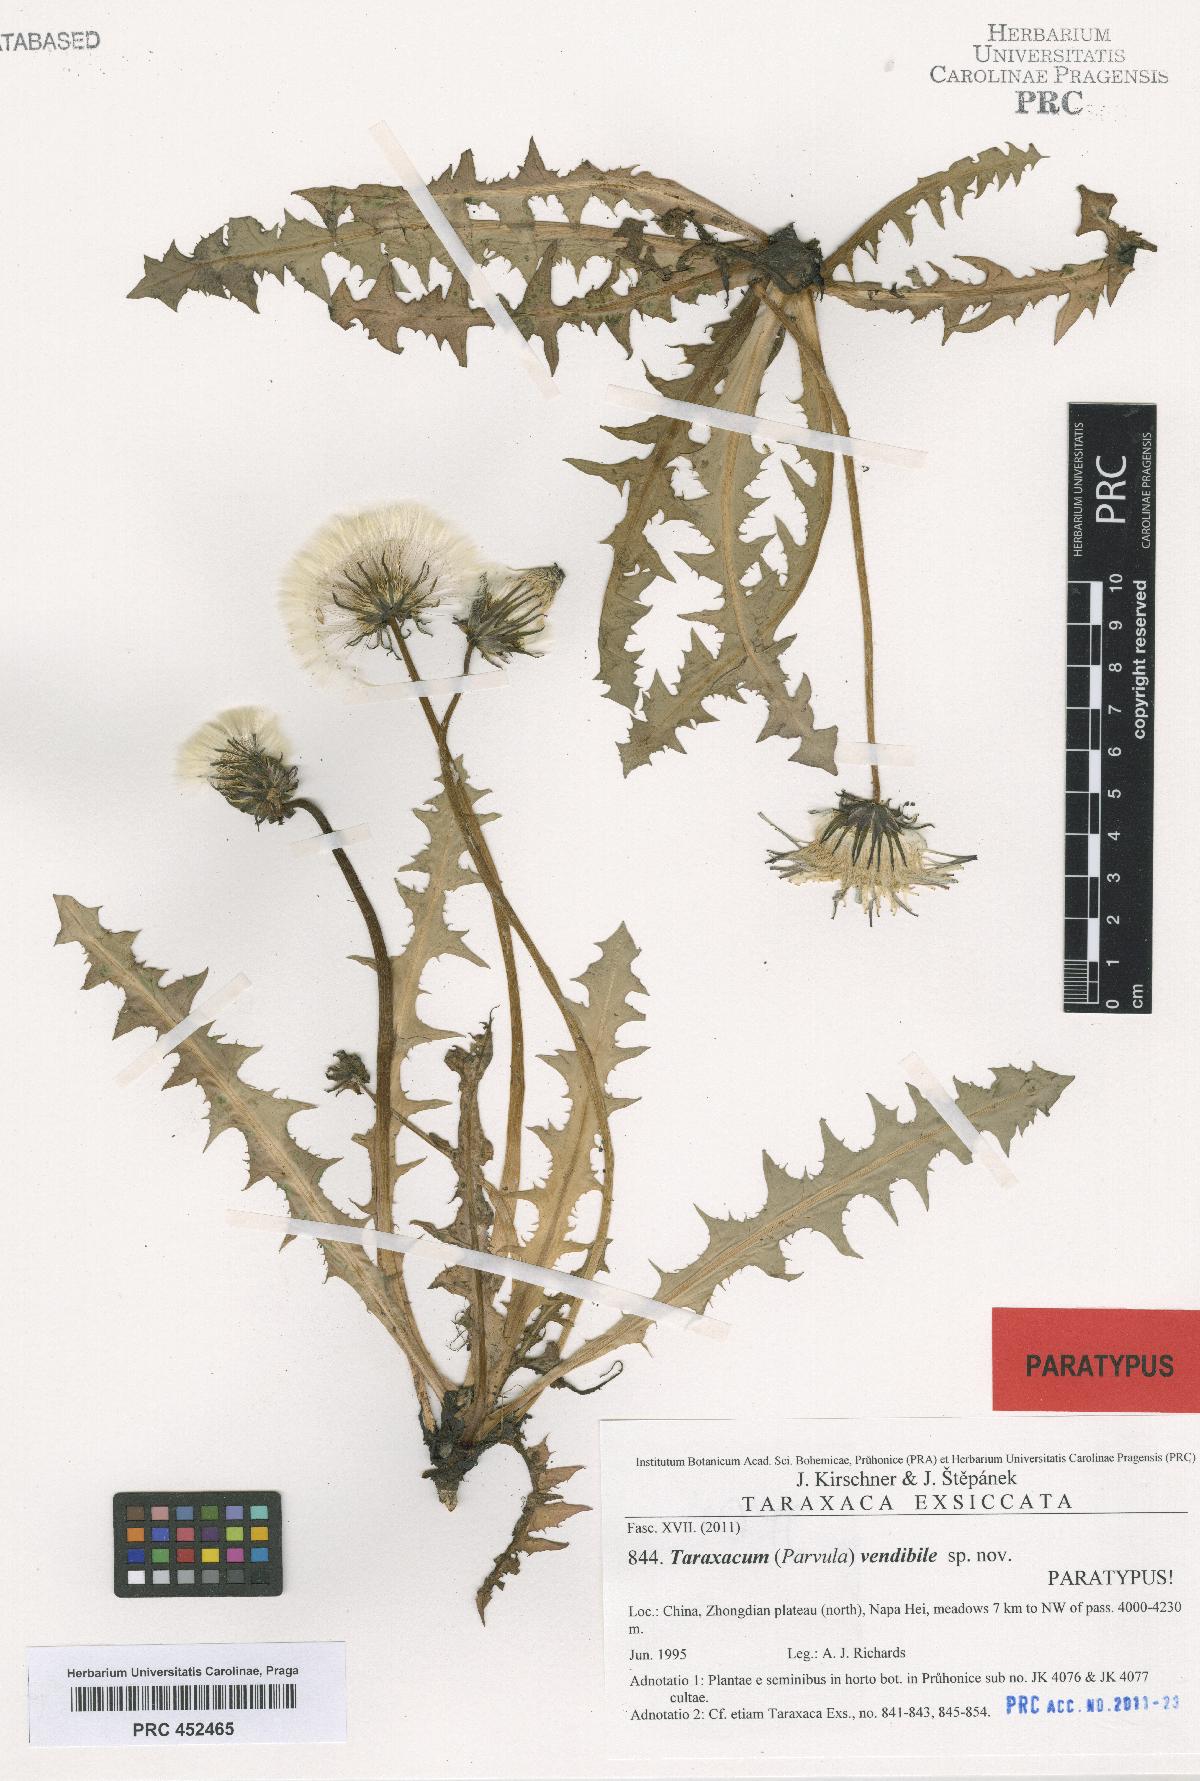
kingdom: Plantae
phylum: Tracheophyta
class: Magnoliopsida
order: Asterales
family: Asteraceae
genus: Taraxacum
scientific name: Taraxacum vendibile
